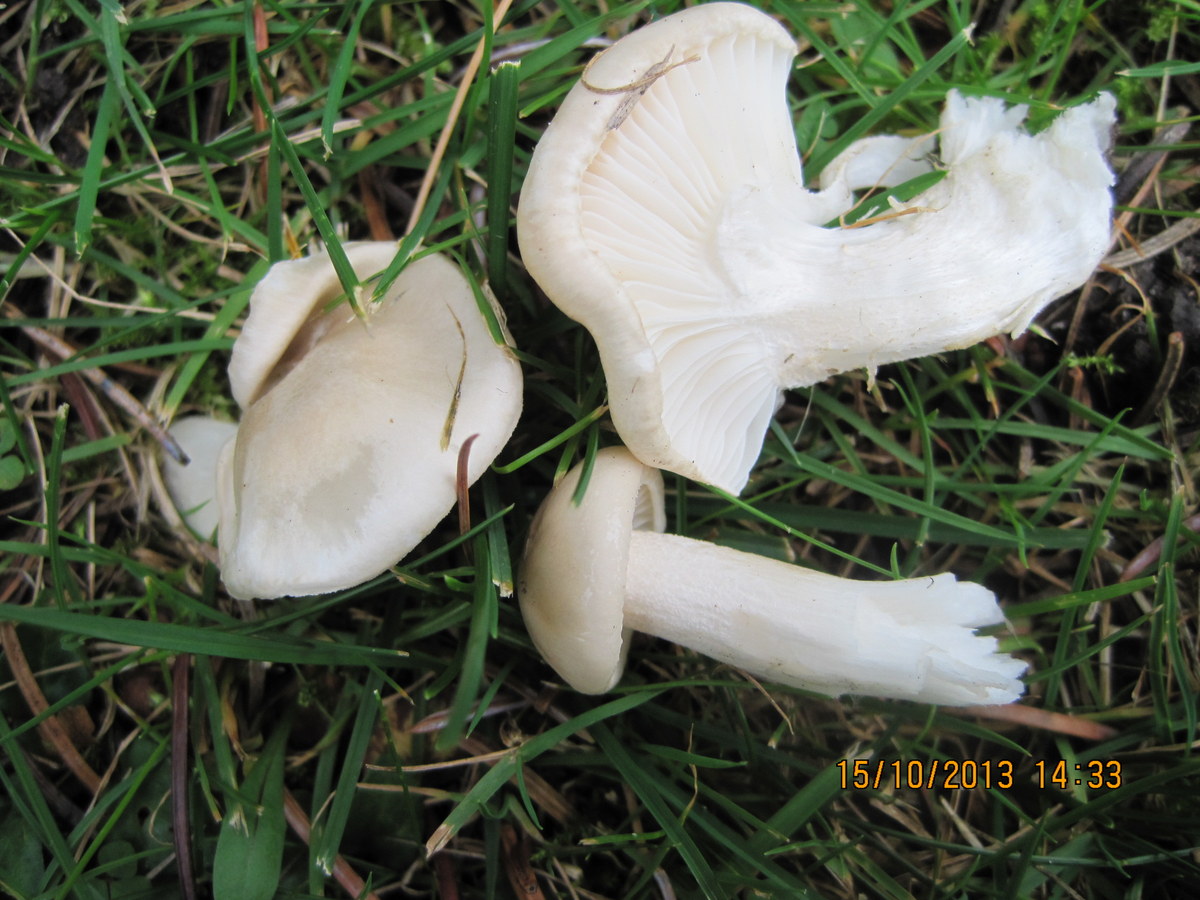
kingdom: Fungi
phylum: Basidiomycota
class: Agaricomycetes
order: Agaricales
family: Hygrophoraceae
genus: Hygrophorus
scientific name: Hygrophorus agathosmus
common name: vellugtende sneglehat
